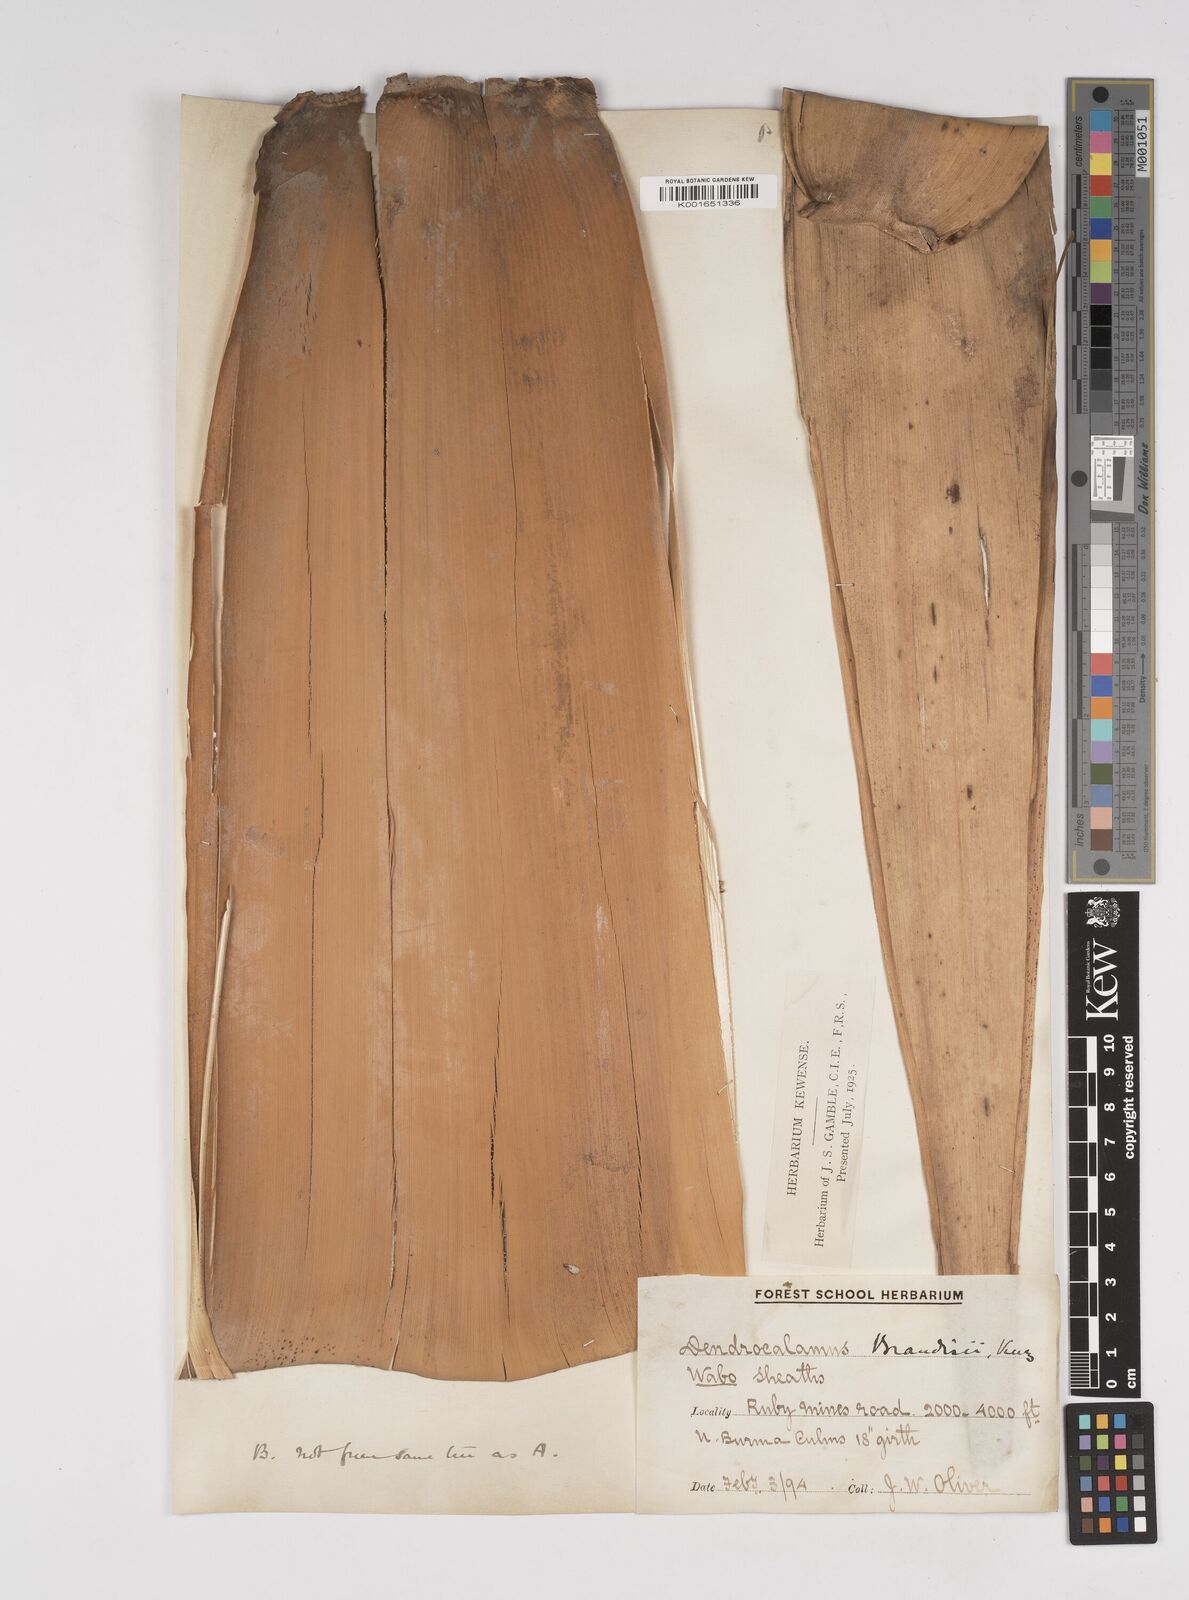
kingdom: Plantae
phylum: Tracheophyta
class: Liliopsida
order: Poales
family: Poaceae
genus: Dendrocalamus
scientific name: Dendrocalamus brandisii
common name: Velvetleaf bamboo
